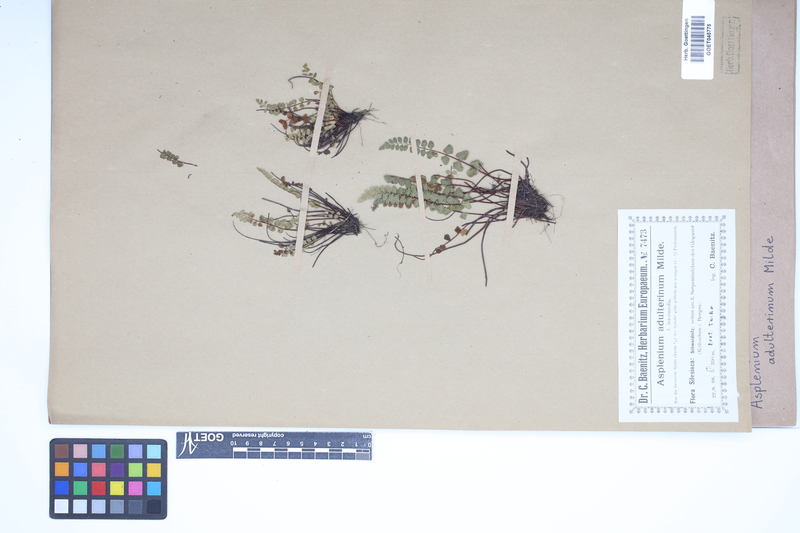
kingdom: Plantae
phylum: Tracheophyta
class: Polypodiopsida
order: Polypodiales
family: Aspleniaceae
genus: Asplenium
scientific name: Asplenium adulterinum
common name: Adulterated spleenwort
